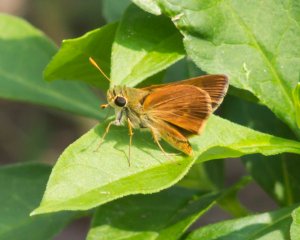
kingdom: Animalia
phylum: Arthropoda
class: Insecta
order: Lepidoptera
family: Hesperiidae
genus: Wallengrenia
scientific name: Wallengrenia otho
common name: Southern Broken-Dash
